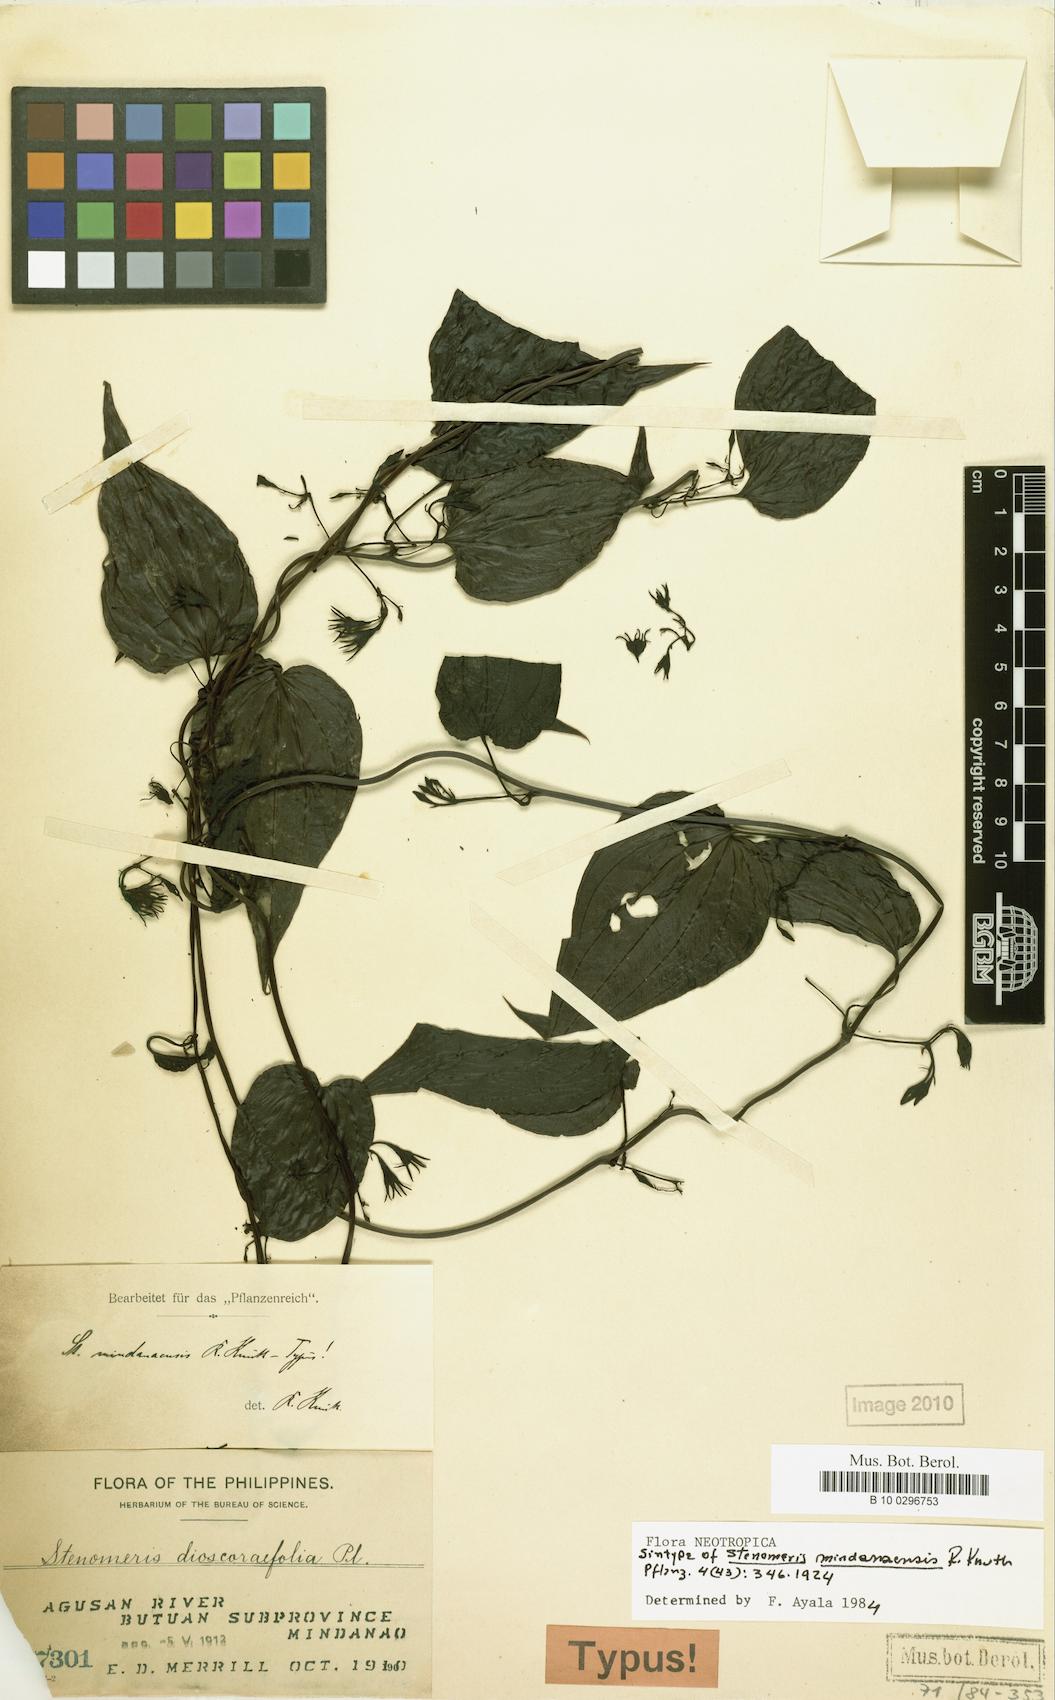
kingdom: Plantae
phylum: Tracheophyta
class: Liliopsida
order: Dioscoreales
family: Dioscoreaceae
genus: Stenomeris
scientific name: Stenomeris dioscoreifolia
